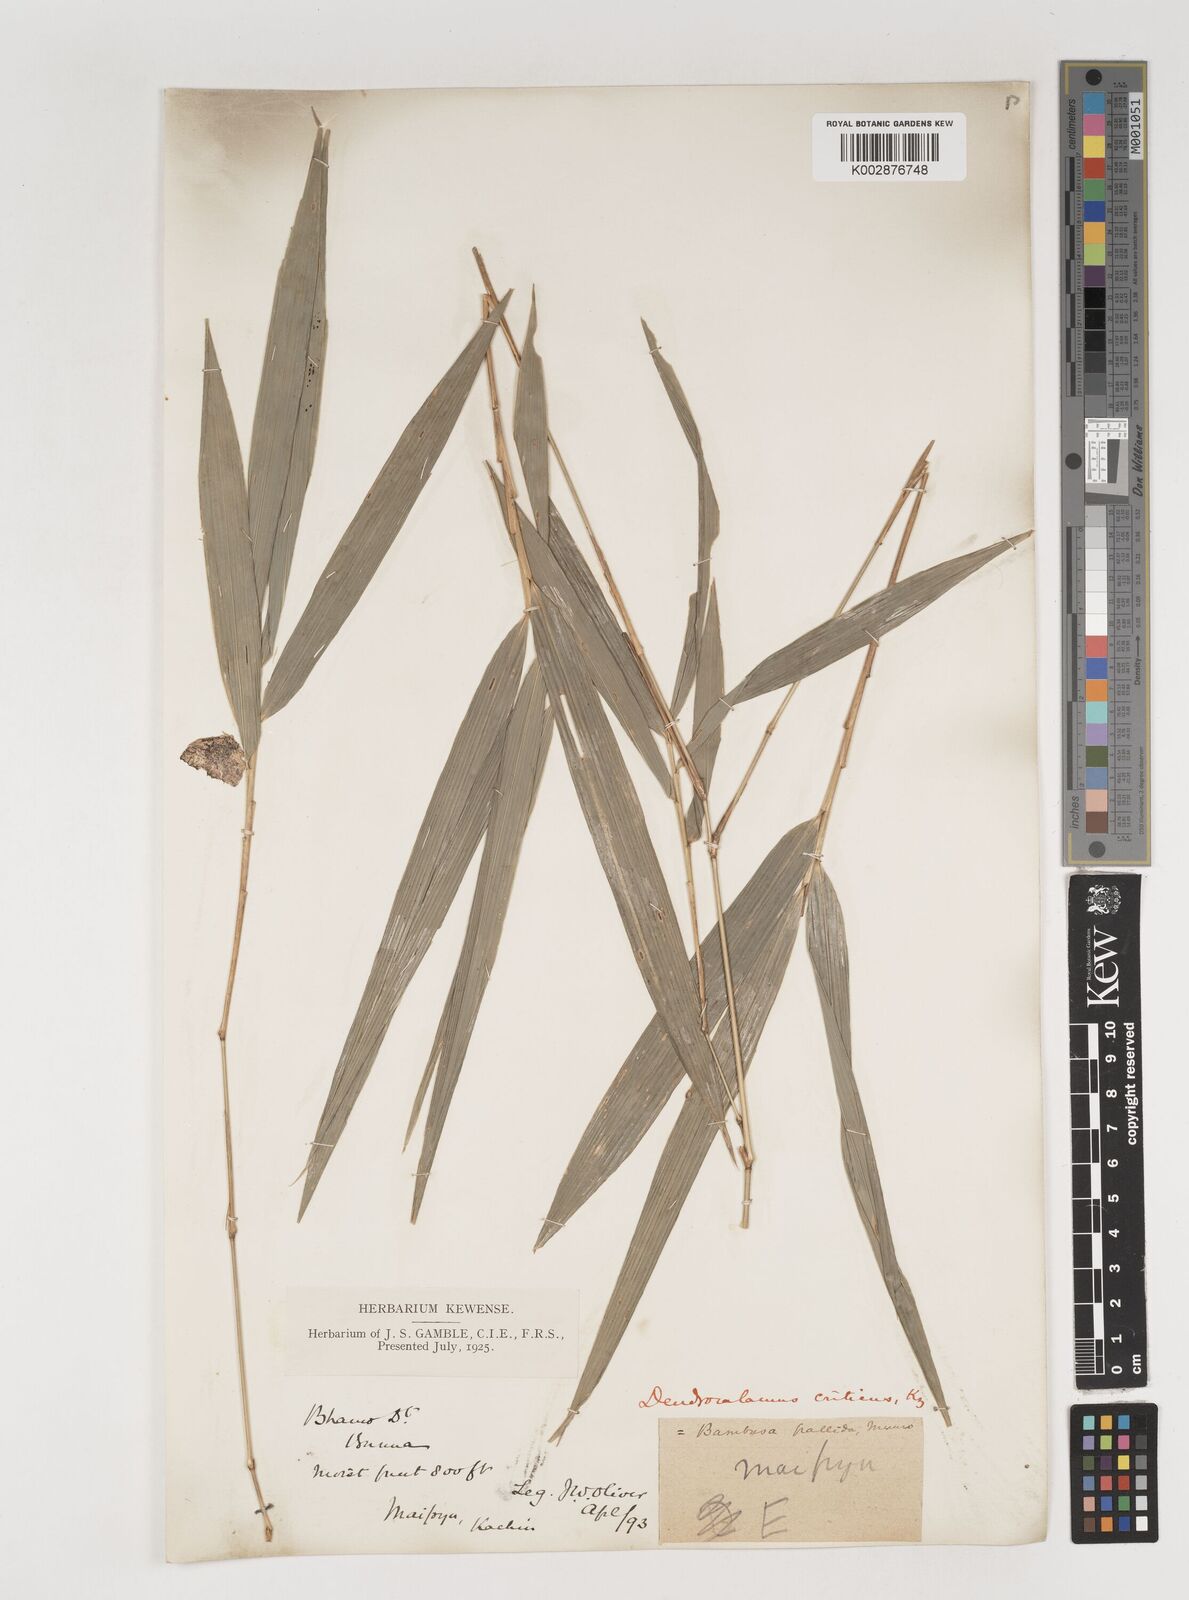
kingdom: Plantae
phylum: Tracheophyta
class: Liliopsida
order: Poales
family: Poaceae
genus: Bambusa
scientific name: Bambusa pallida
